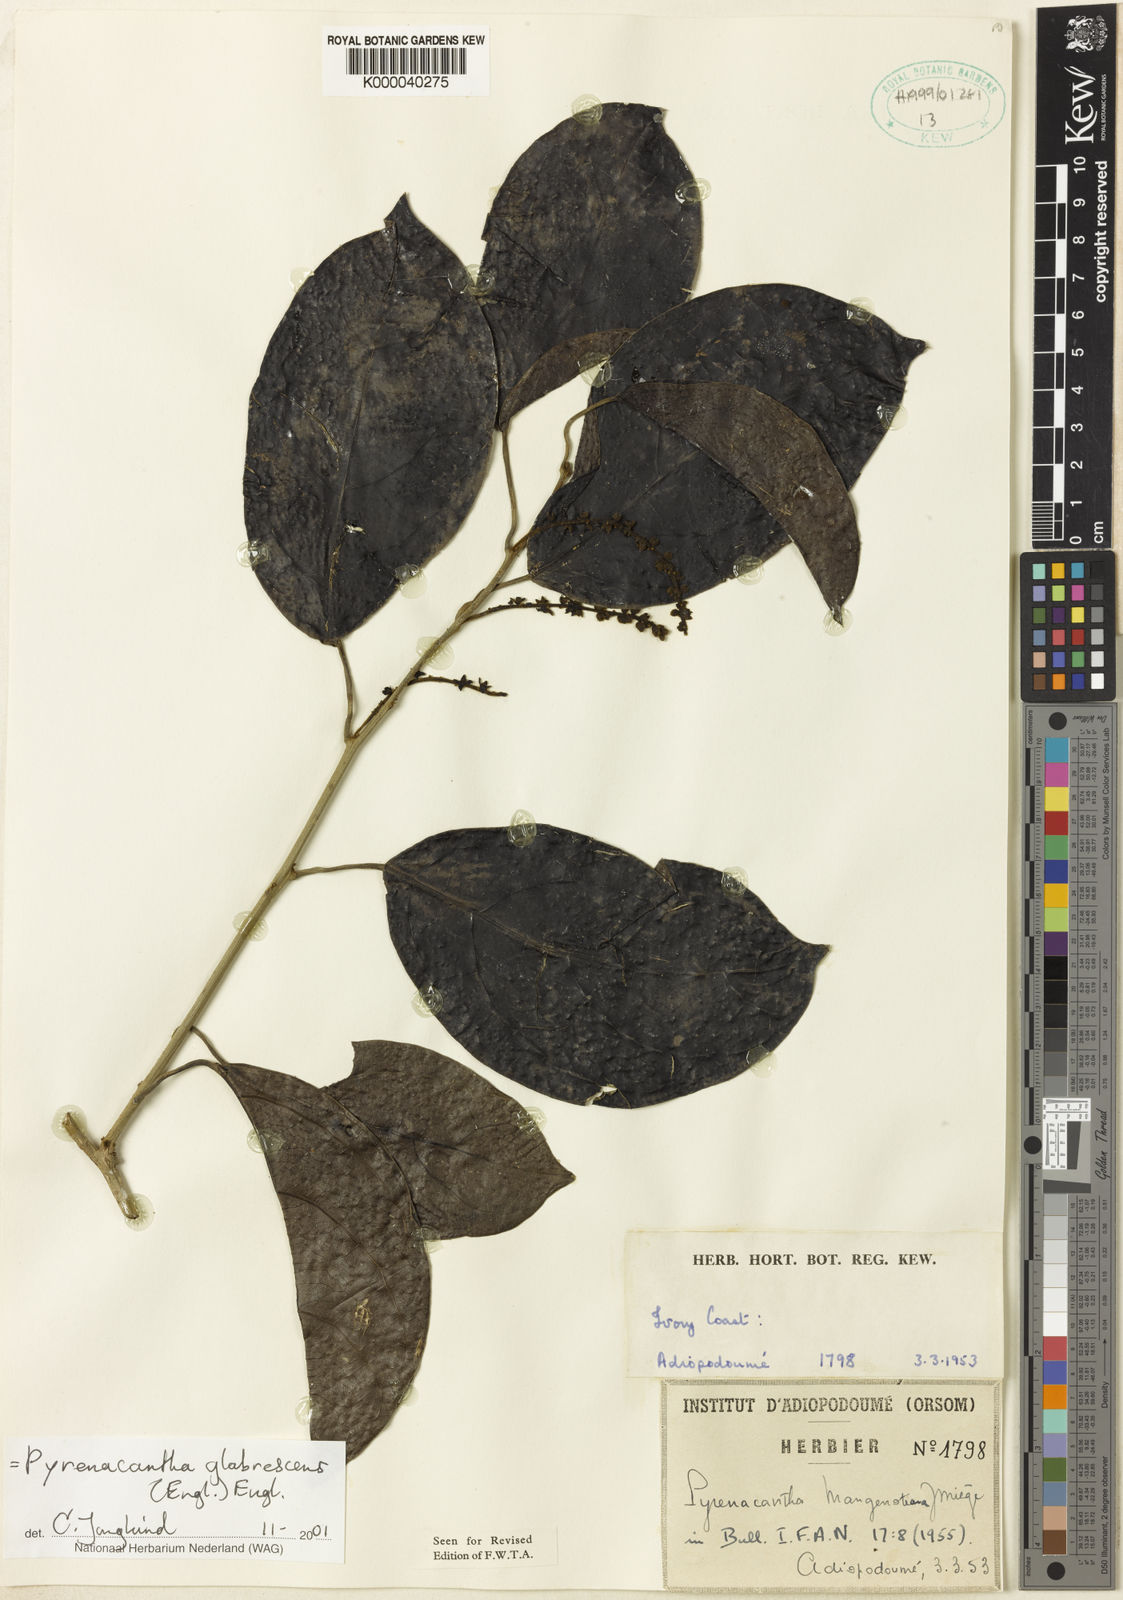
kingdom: Plantae
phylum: Tracheophyta
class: Magnoliopsida
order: Icacinales
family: Icacinaceae
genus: Pyrenacantha
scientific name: Pyrenacantha glabrescens
